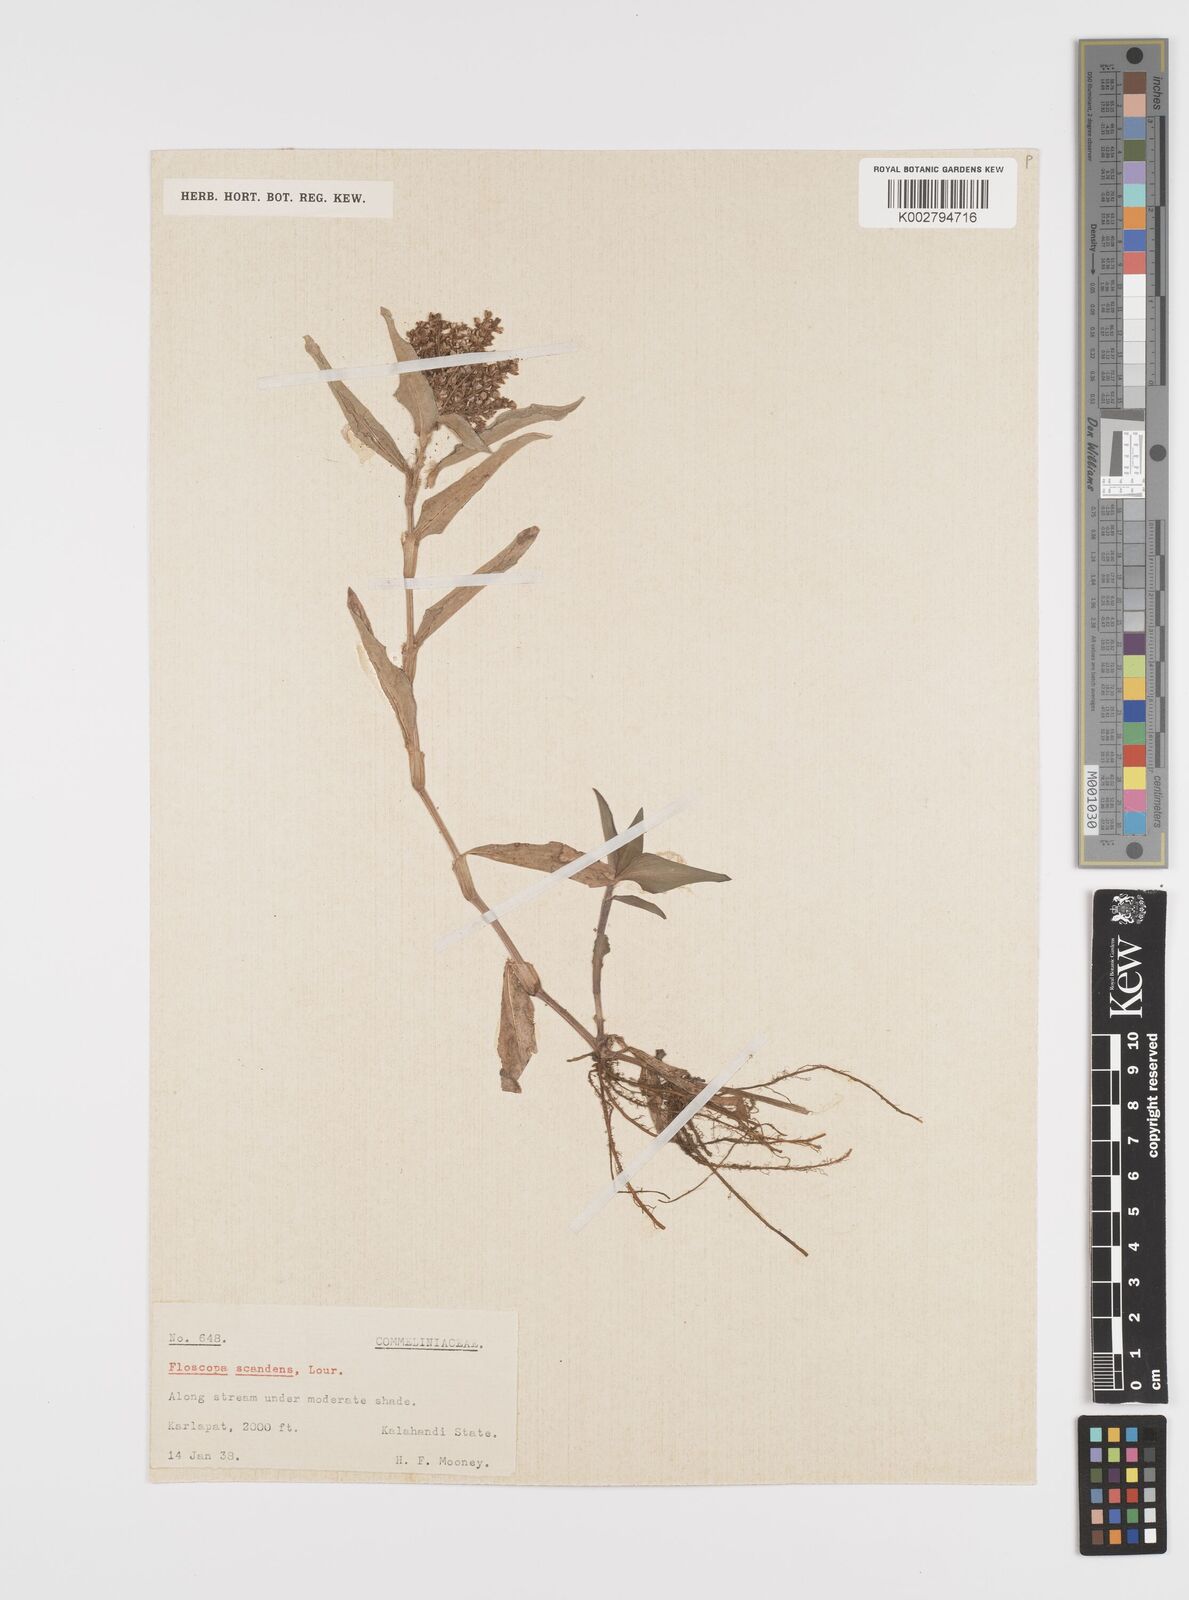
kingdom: Plantae
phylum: Tracheophyta
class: Liliopsida
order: Commelinales
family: Commelinaceae
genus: Floscopa
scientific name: Floscopa scandens
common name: Climbing flower cup
